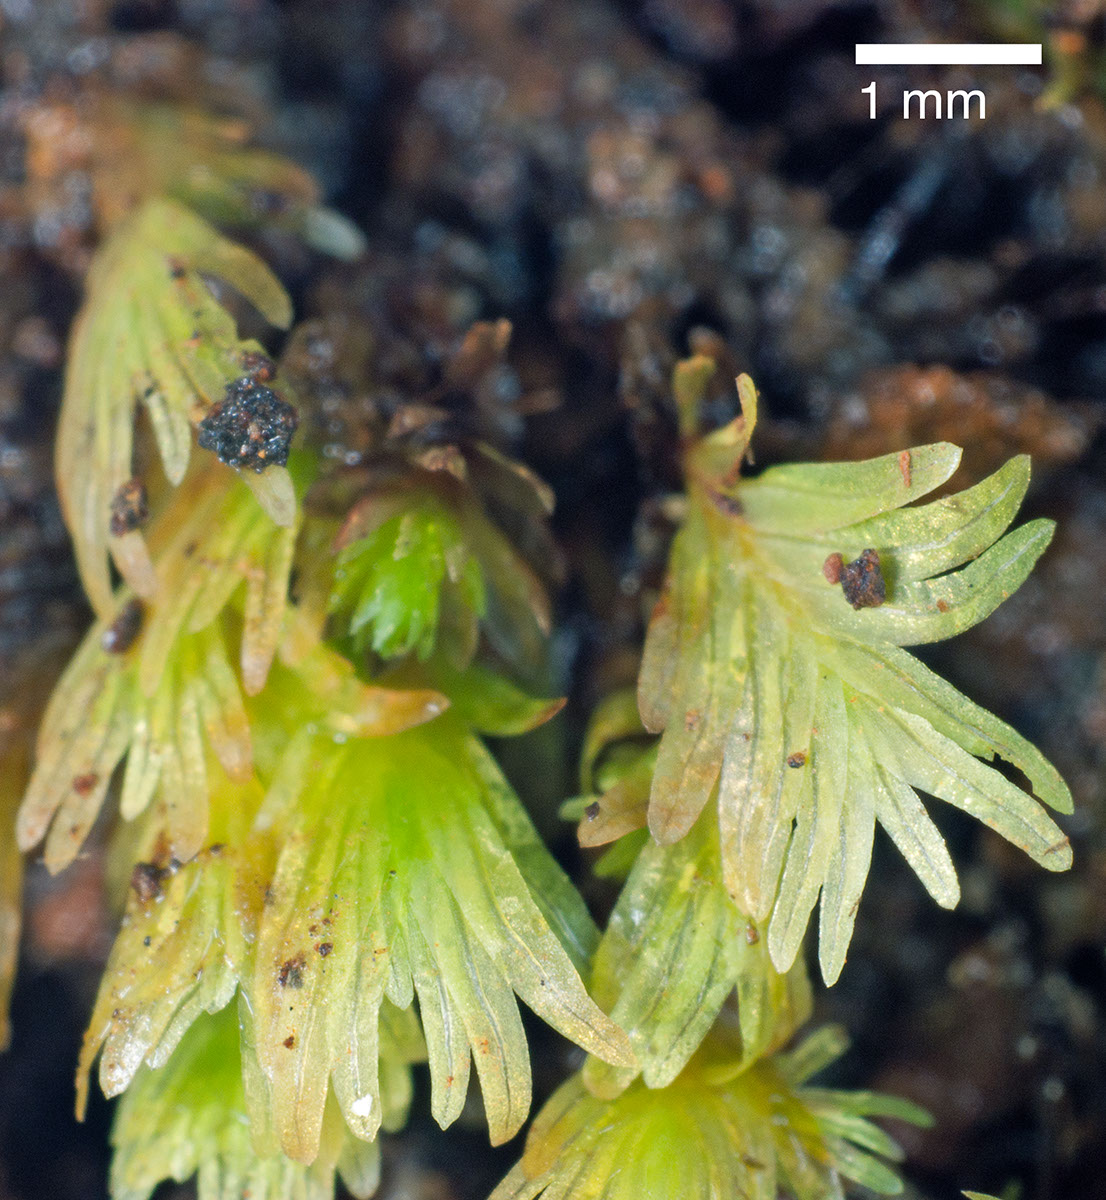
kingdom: Plantae
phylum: Bryophyta
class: Bryopsida
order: Dicranales
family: Fissidentaceae
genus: Fissidens
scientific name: Fissidens oblongifolius
